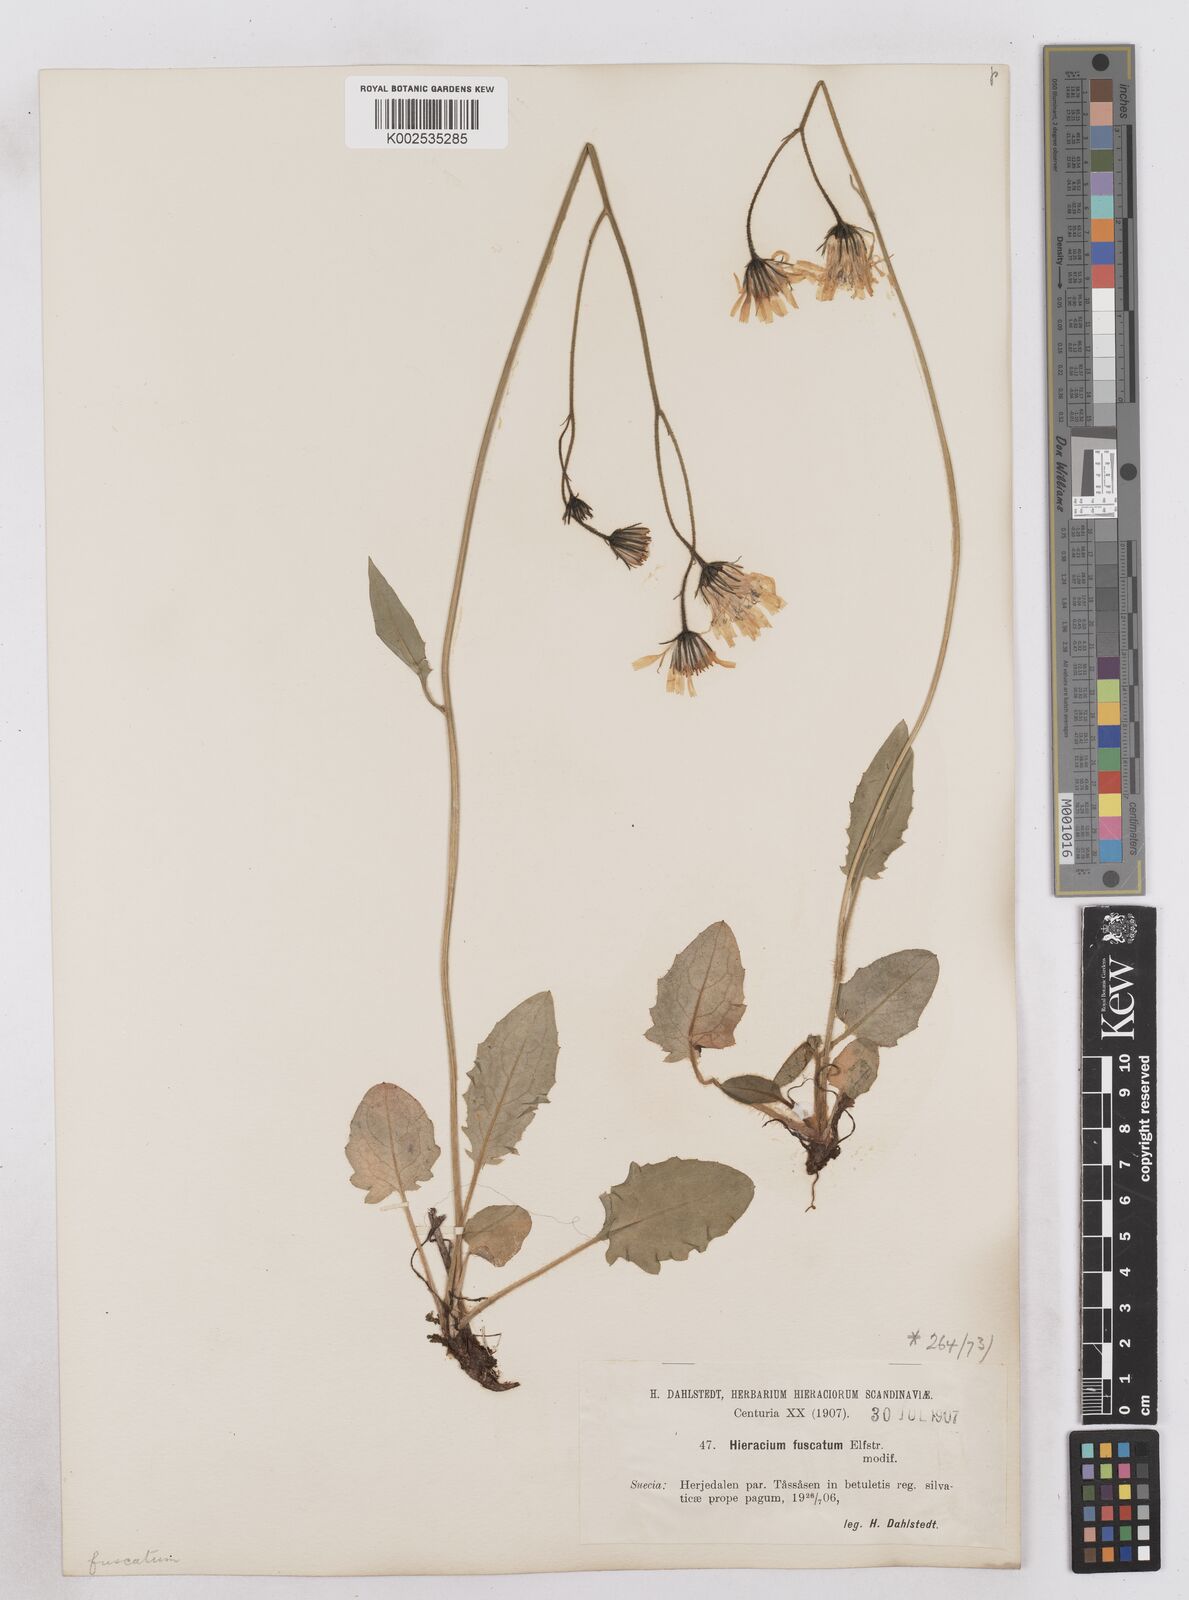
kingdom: Plantae
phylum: Tracheophyta
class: Magnoliopsida
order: Asterales
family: Asteraceae
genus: Hieracium
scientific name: Hieracium atratum
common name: Polar hawkweed
